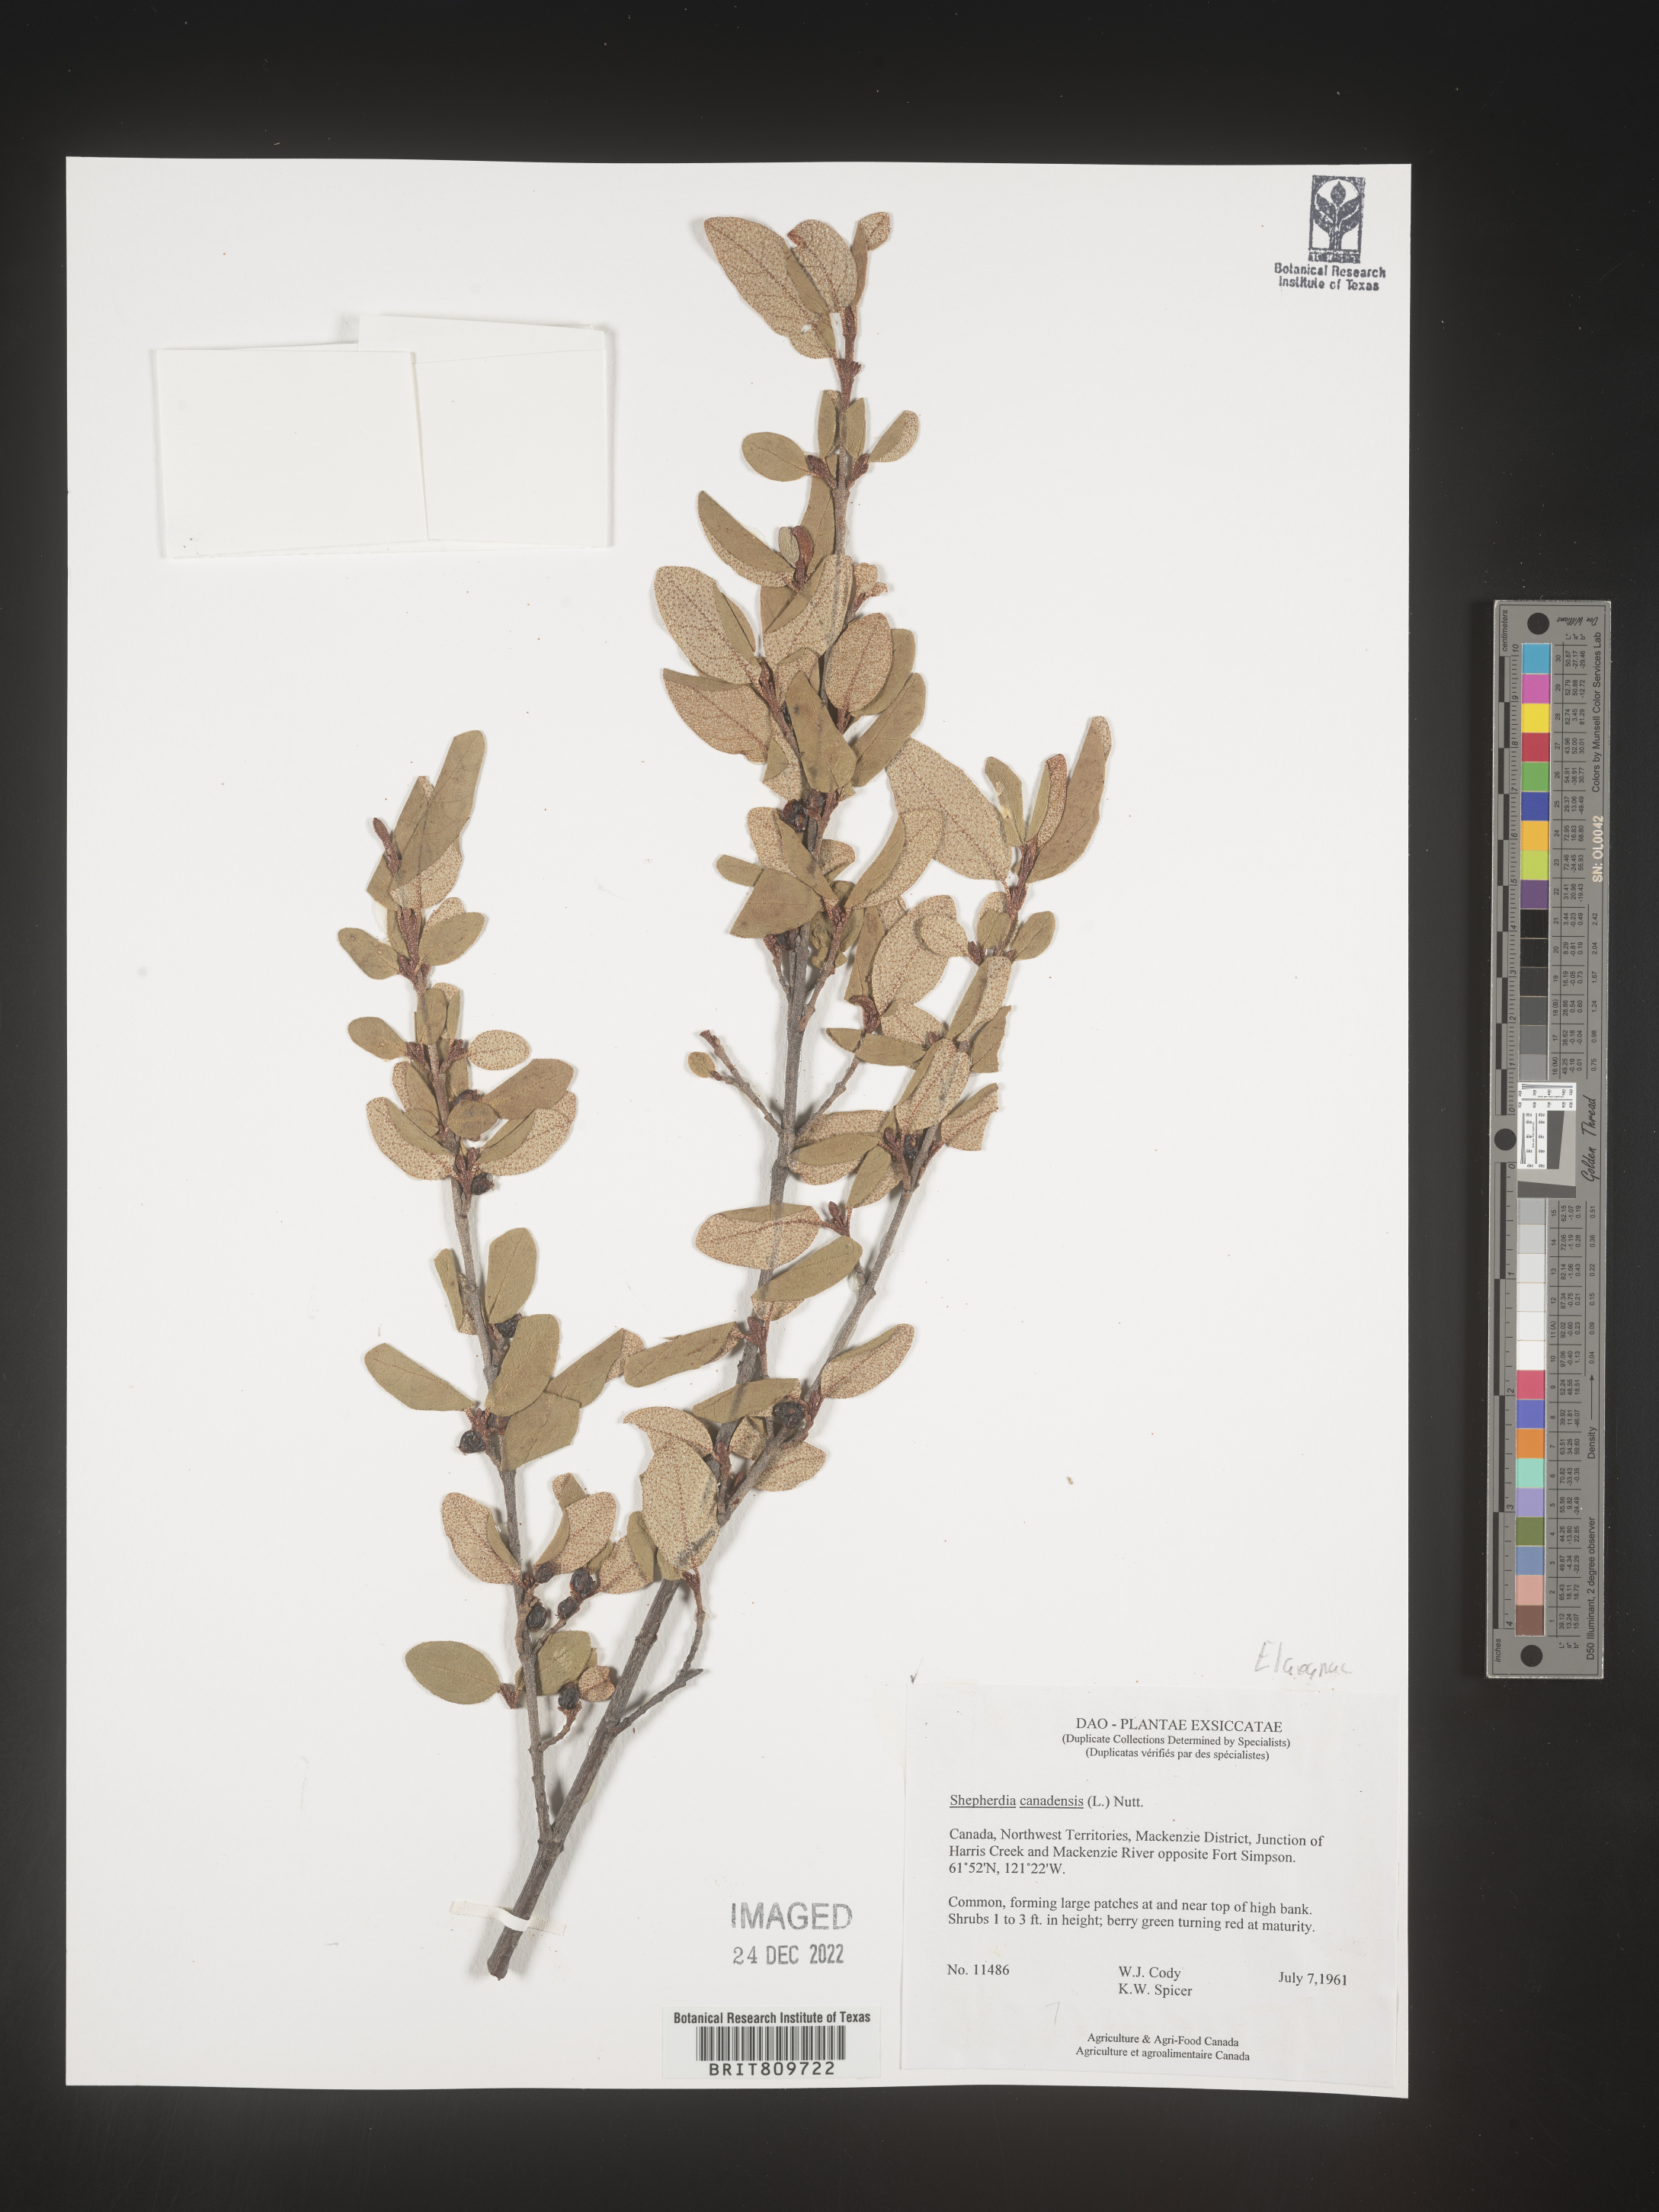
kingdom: Plantae
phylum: Tracheophyta
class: Magnoliopsida
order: Rosales
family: Elaeagnaceae
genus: Shepherdia
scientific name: Shepherdia canadensis
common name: Soapberry
